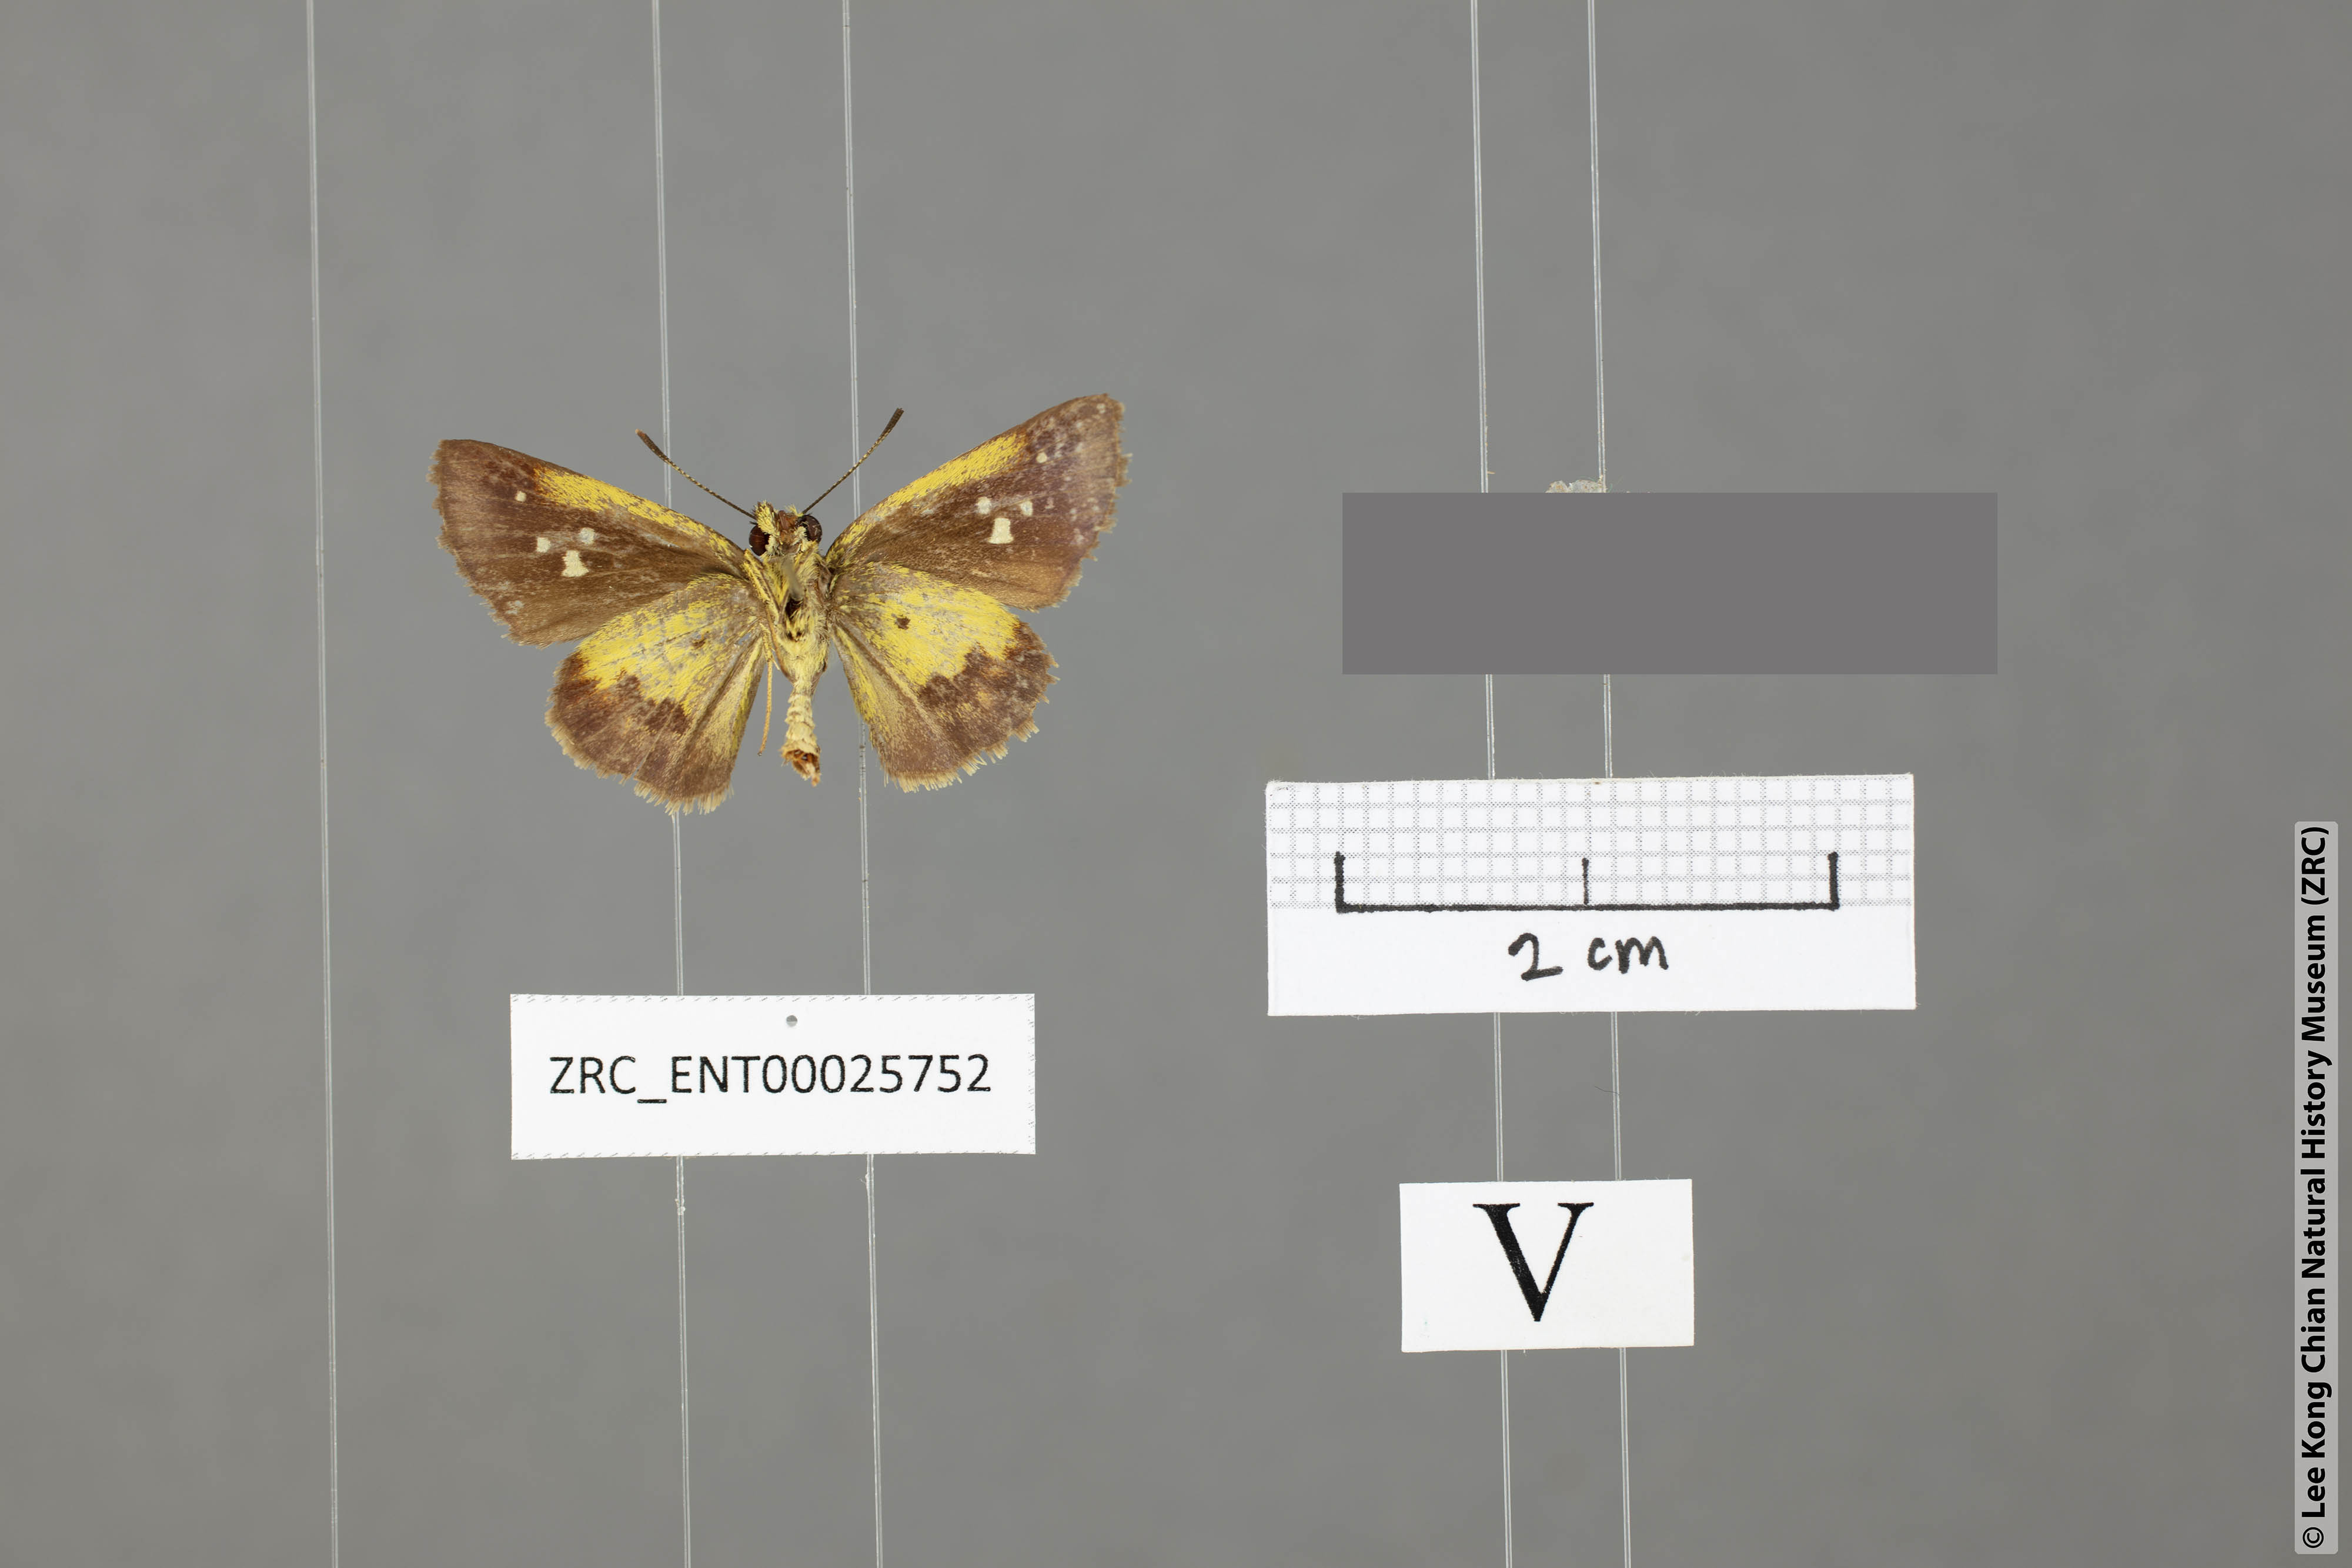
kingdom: Animalia
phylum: Arthropoda
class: Insecta
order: Lepidoptera
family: Hesperiidae
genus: Zographetus
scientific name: Zographetus satwa
